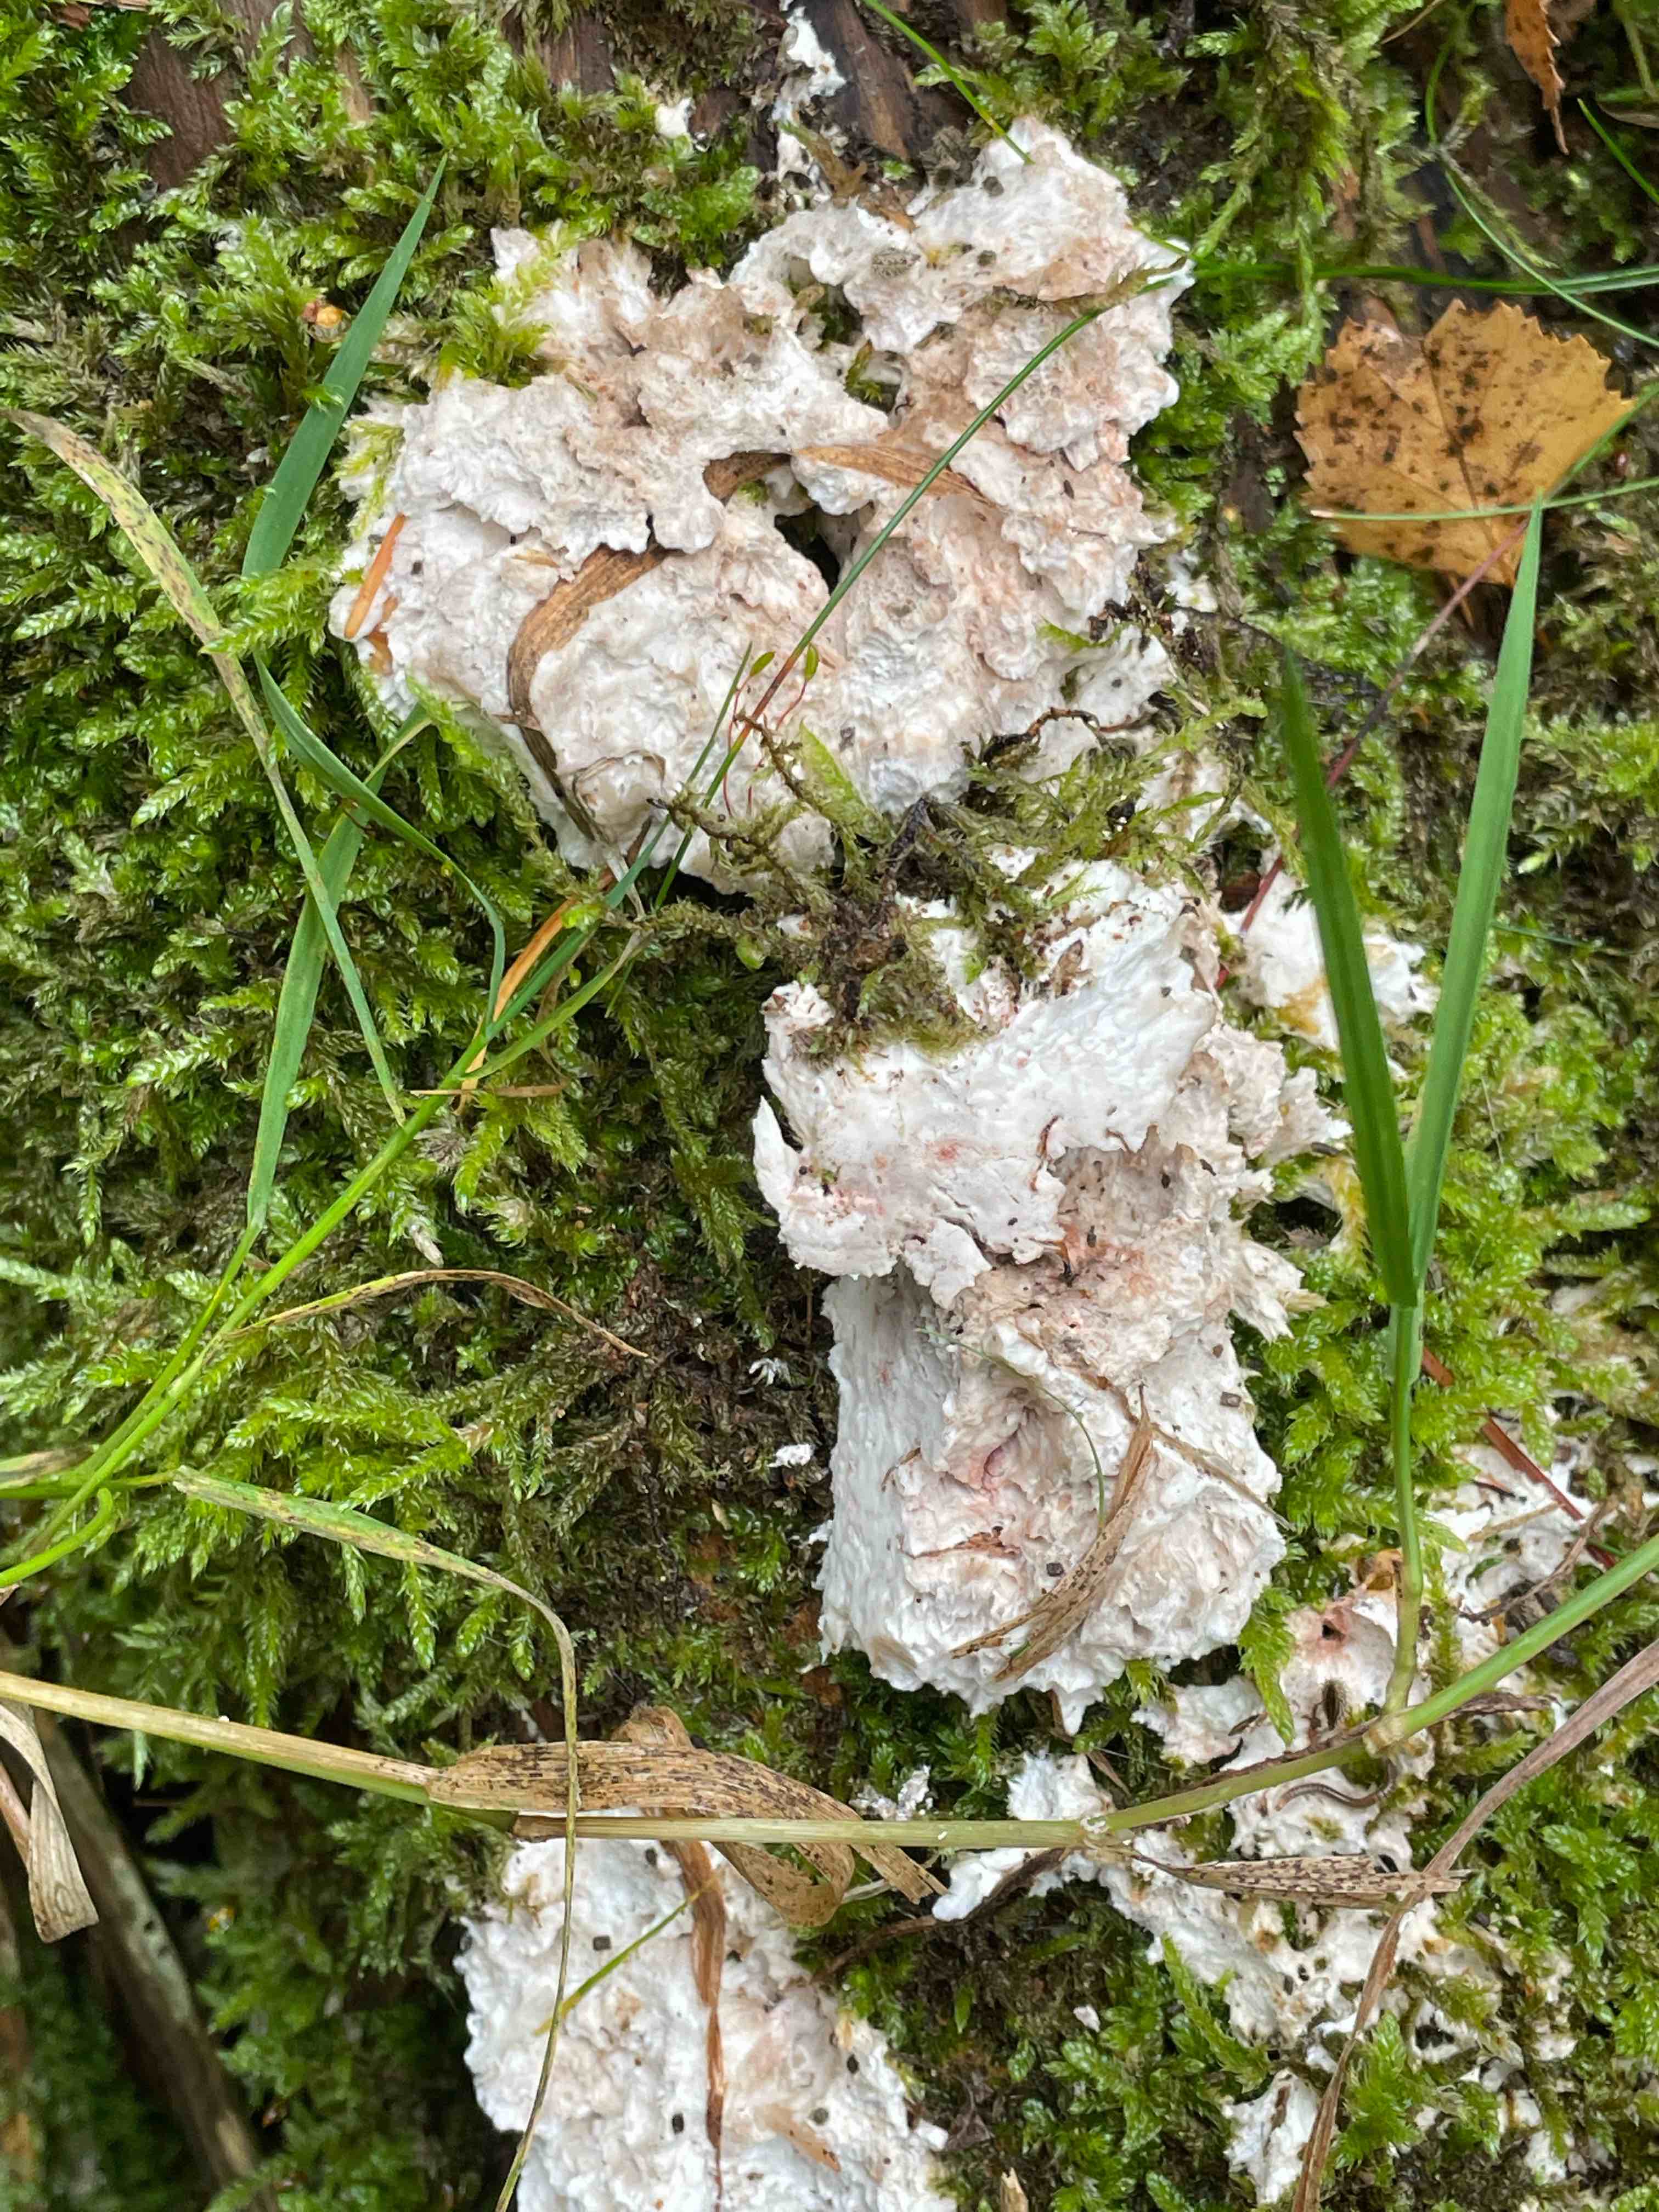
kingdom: Fungi
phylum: Basidiomycota
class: Agaricomycetes
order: Polyporales
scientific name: Polyporales
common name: poresvampordenen
